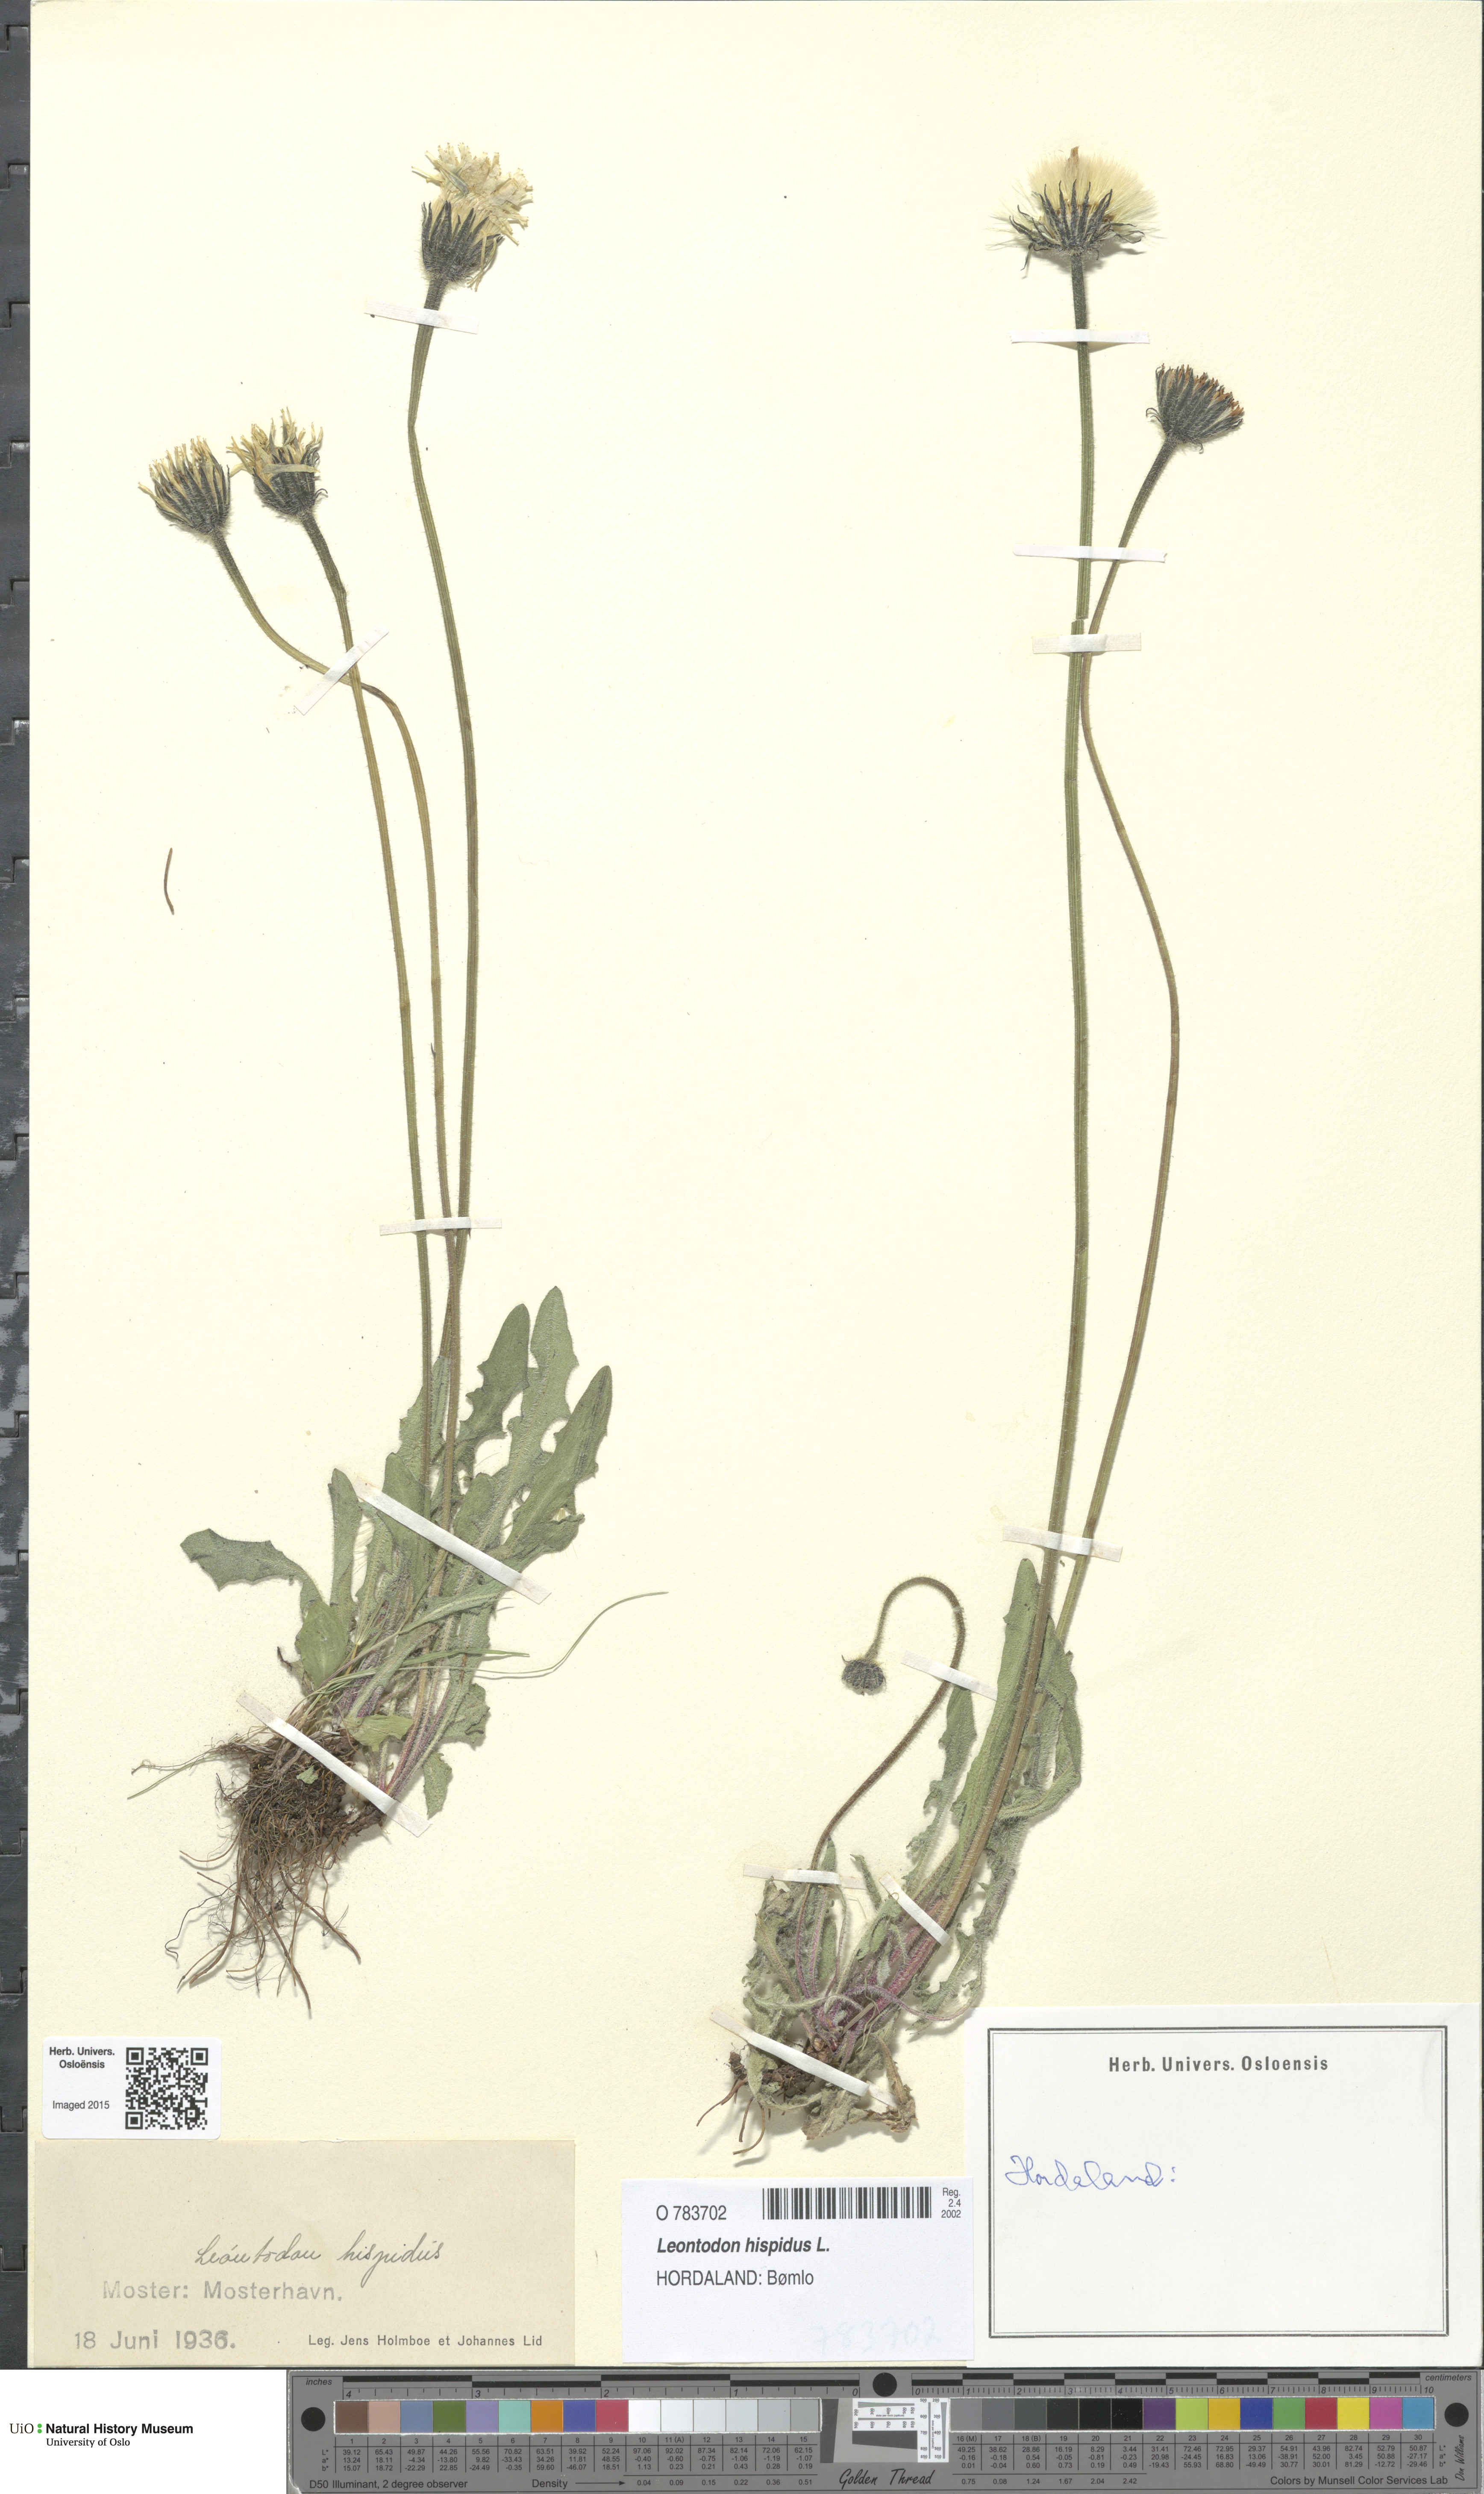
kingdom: Plantae
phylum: Tracheophyta
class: Magnoliopsida
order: Asterales
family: Asteraceae
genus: Leontodon
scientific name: Leontodon hispidus
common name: Rough hawkbit
